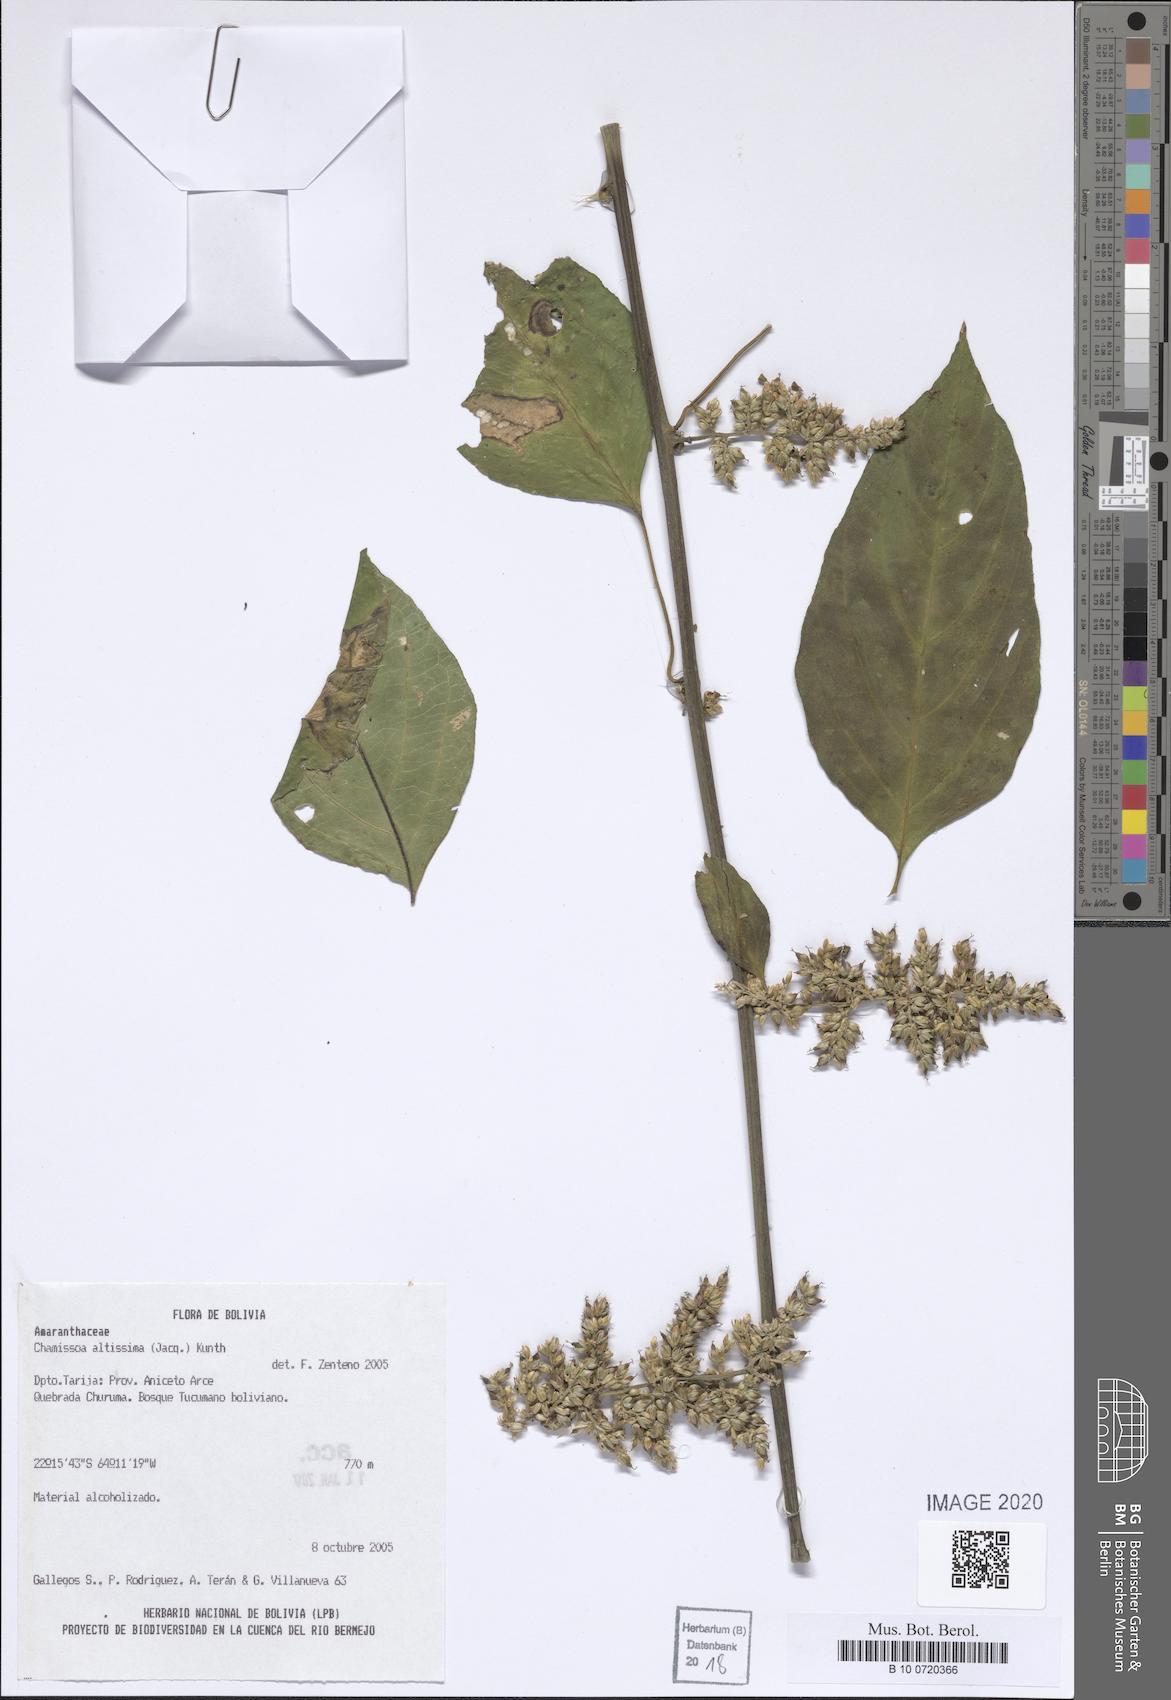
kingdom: Plantae
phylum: Tracheophyta
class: Magnoliopsida
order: Caryophyllales
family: Amaranthaceae
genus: Chamissoa
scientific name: Chamissoa altissima
